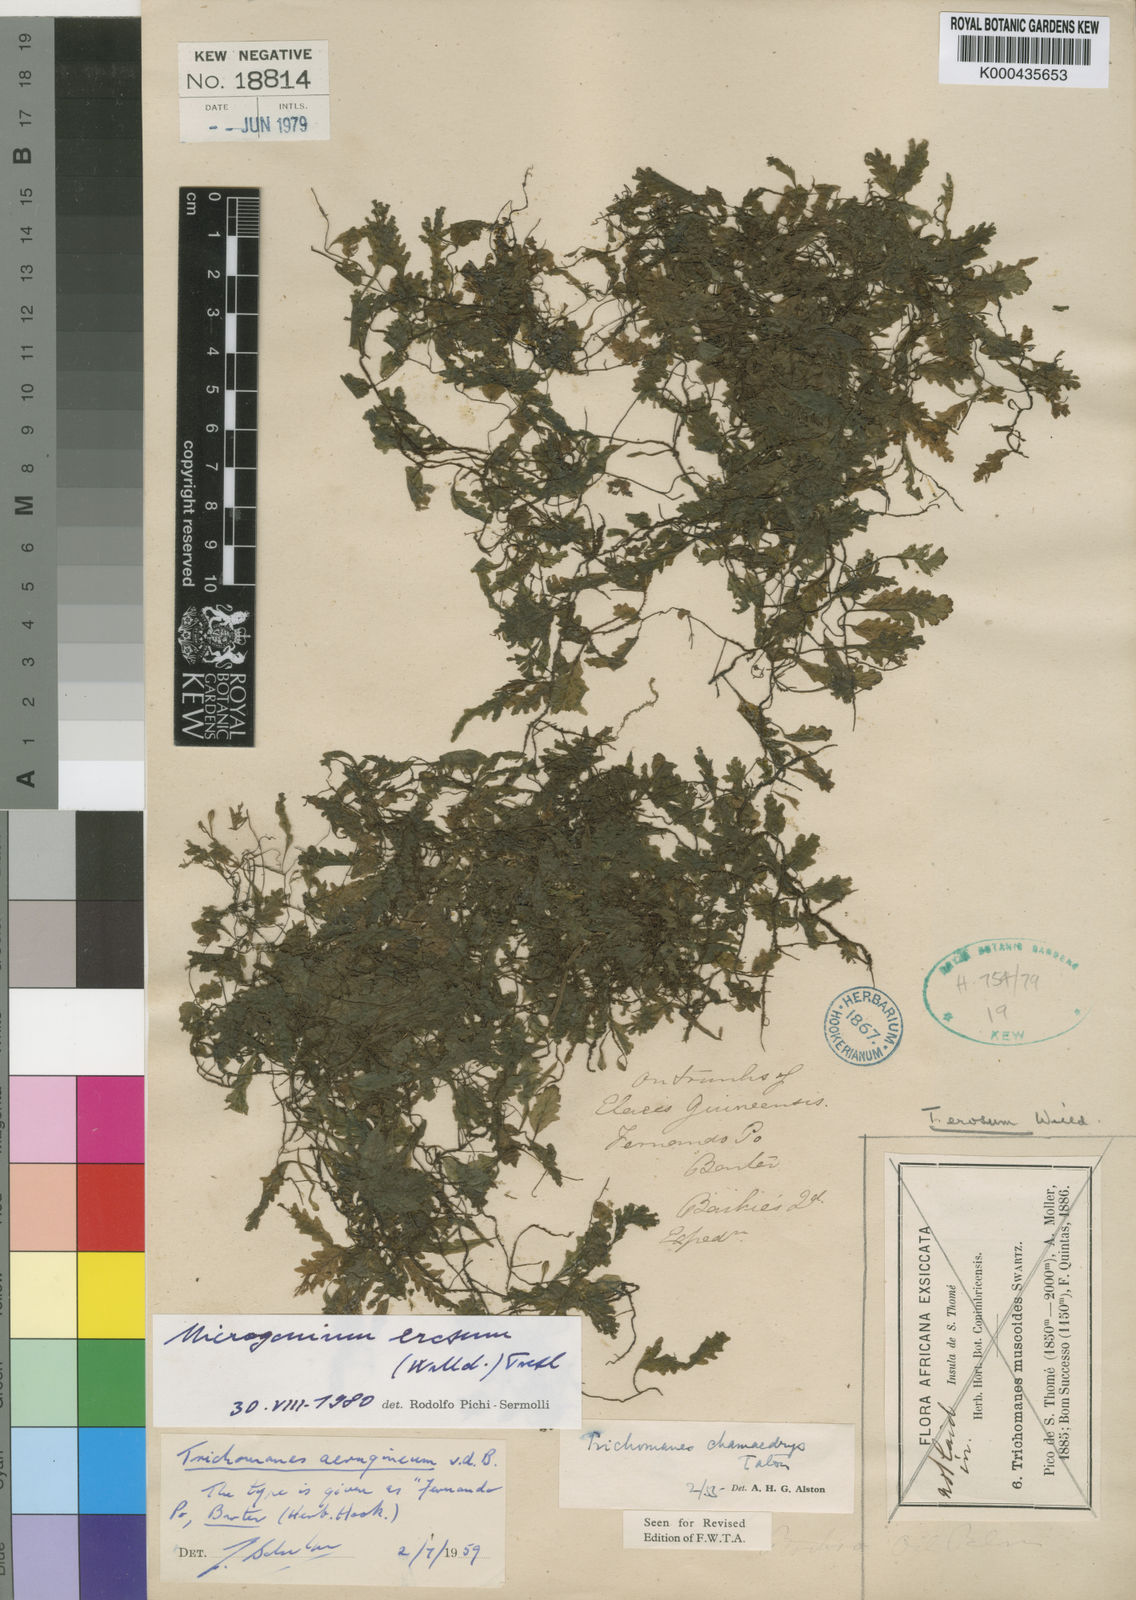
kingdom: Plantae
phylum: Tracheophyta
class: Polypodiopsida
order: Hymenophyllales
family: Hymenophyllaceae
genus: Didymoglossum
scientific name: Didymoglossum erosum
